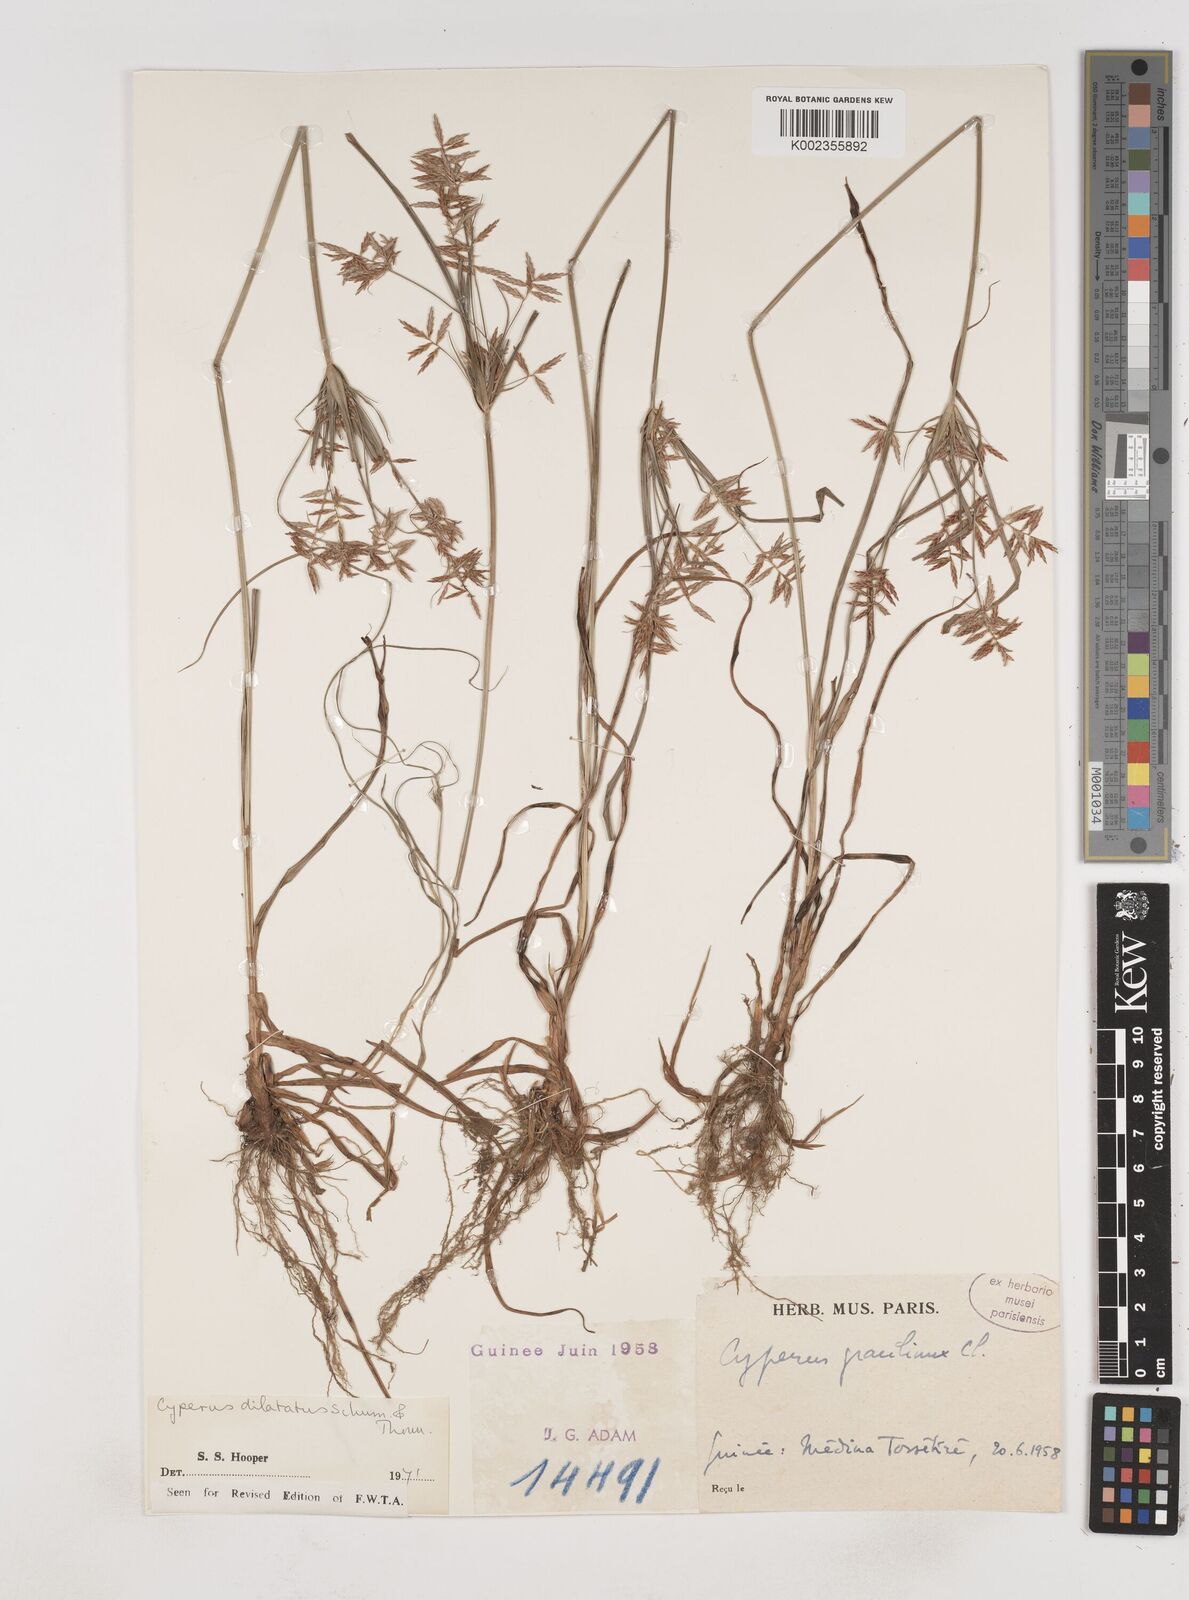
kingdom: Plantae
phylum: Tracheophyta
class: Liliopsida
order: Poales
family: Cyperaceae
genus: Cyperus
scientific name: Cyperus dilatatus
